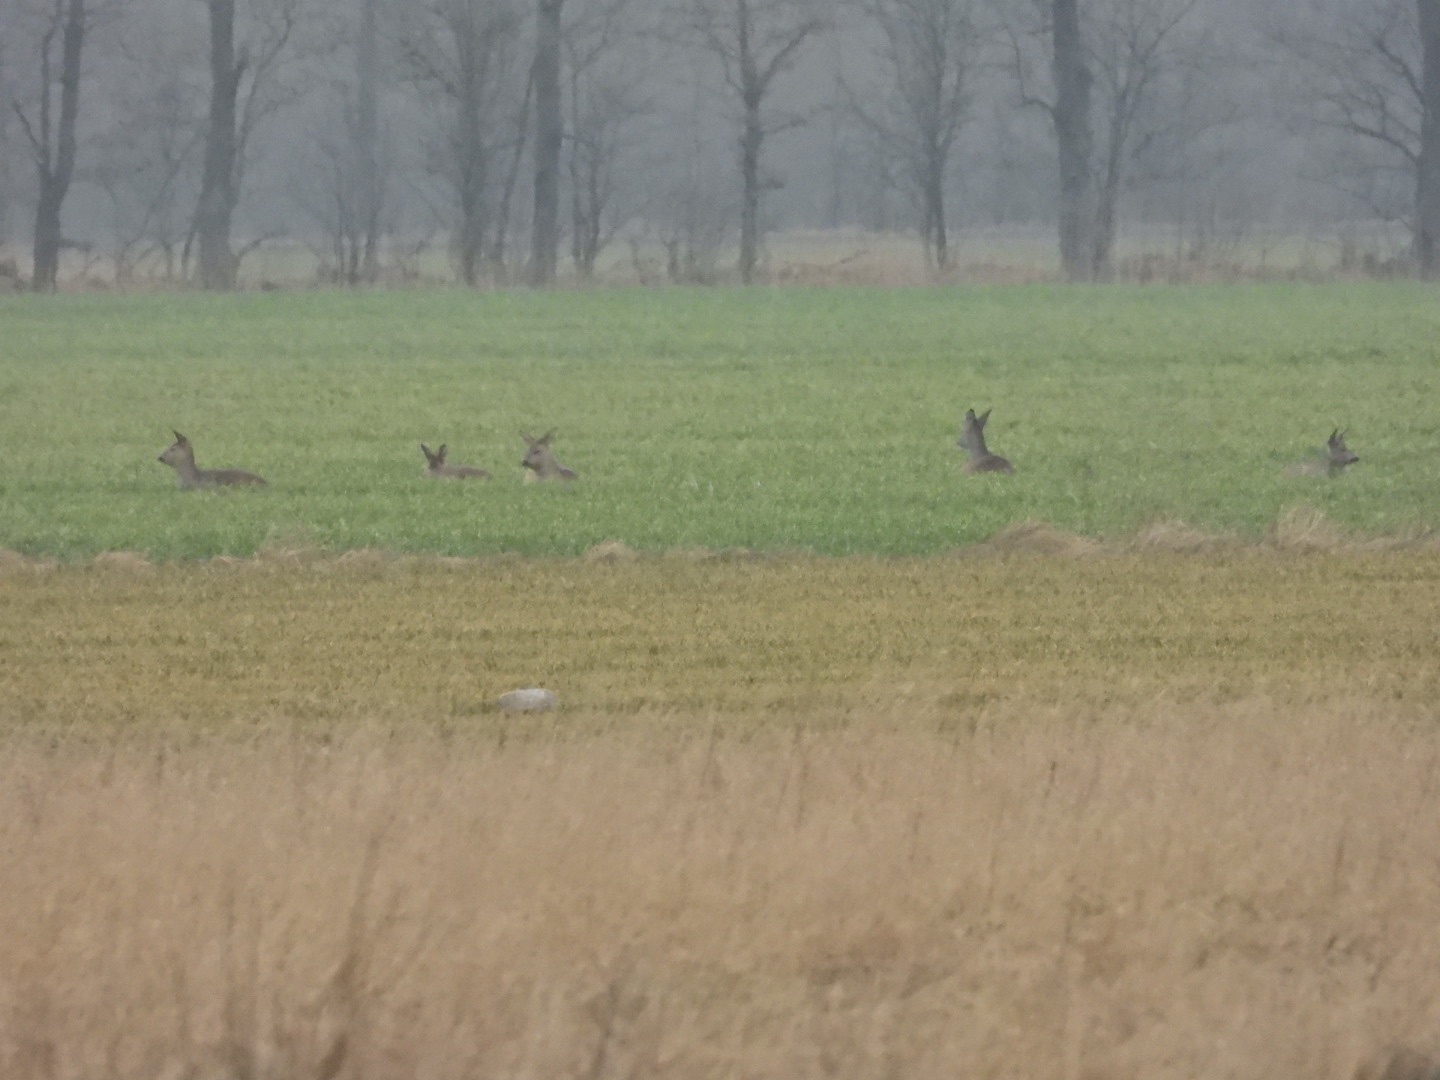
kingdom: Animalia
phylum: Chordata
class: Mammalia
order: Artiodactyla
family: Cervidae
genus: Capreolus
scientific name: Capreolus capreolus
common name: Rådyr
